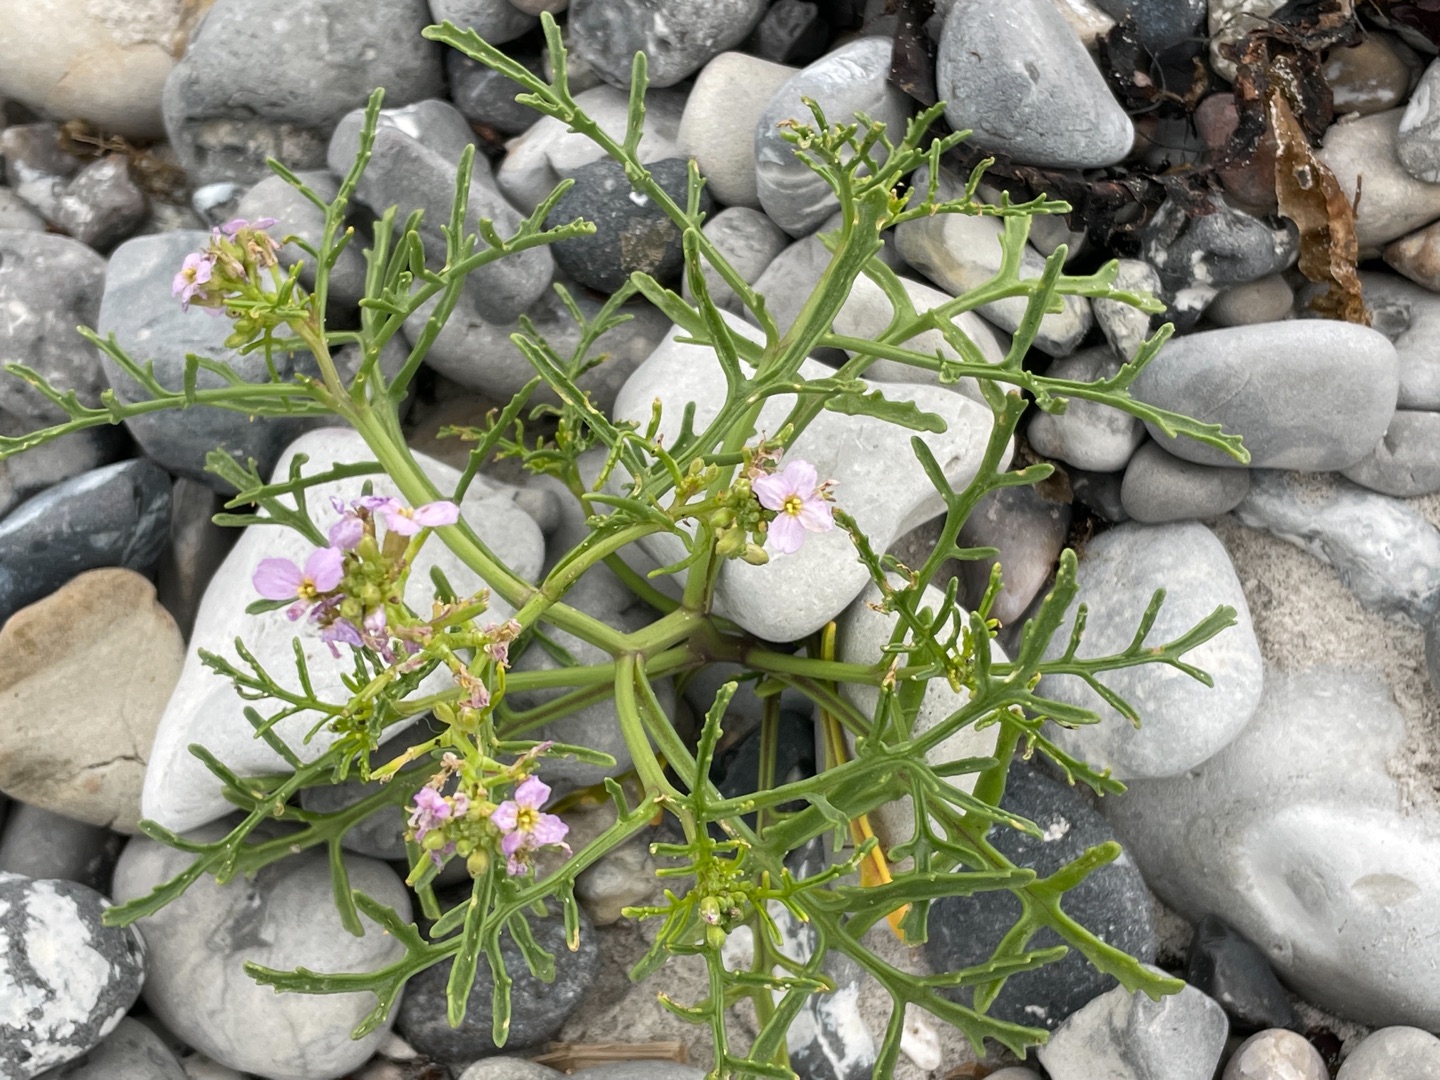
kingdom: Plantae
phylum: Tracheophyta
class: Magnoliopsida
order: Brassicales
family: Brassicaceae
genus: Cakile
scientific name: Cakile maritima
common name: Strandsennep
